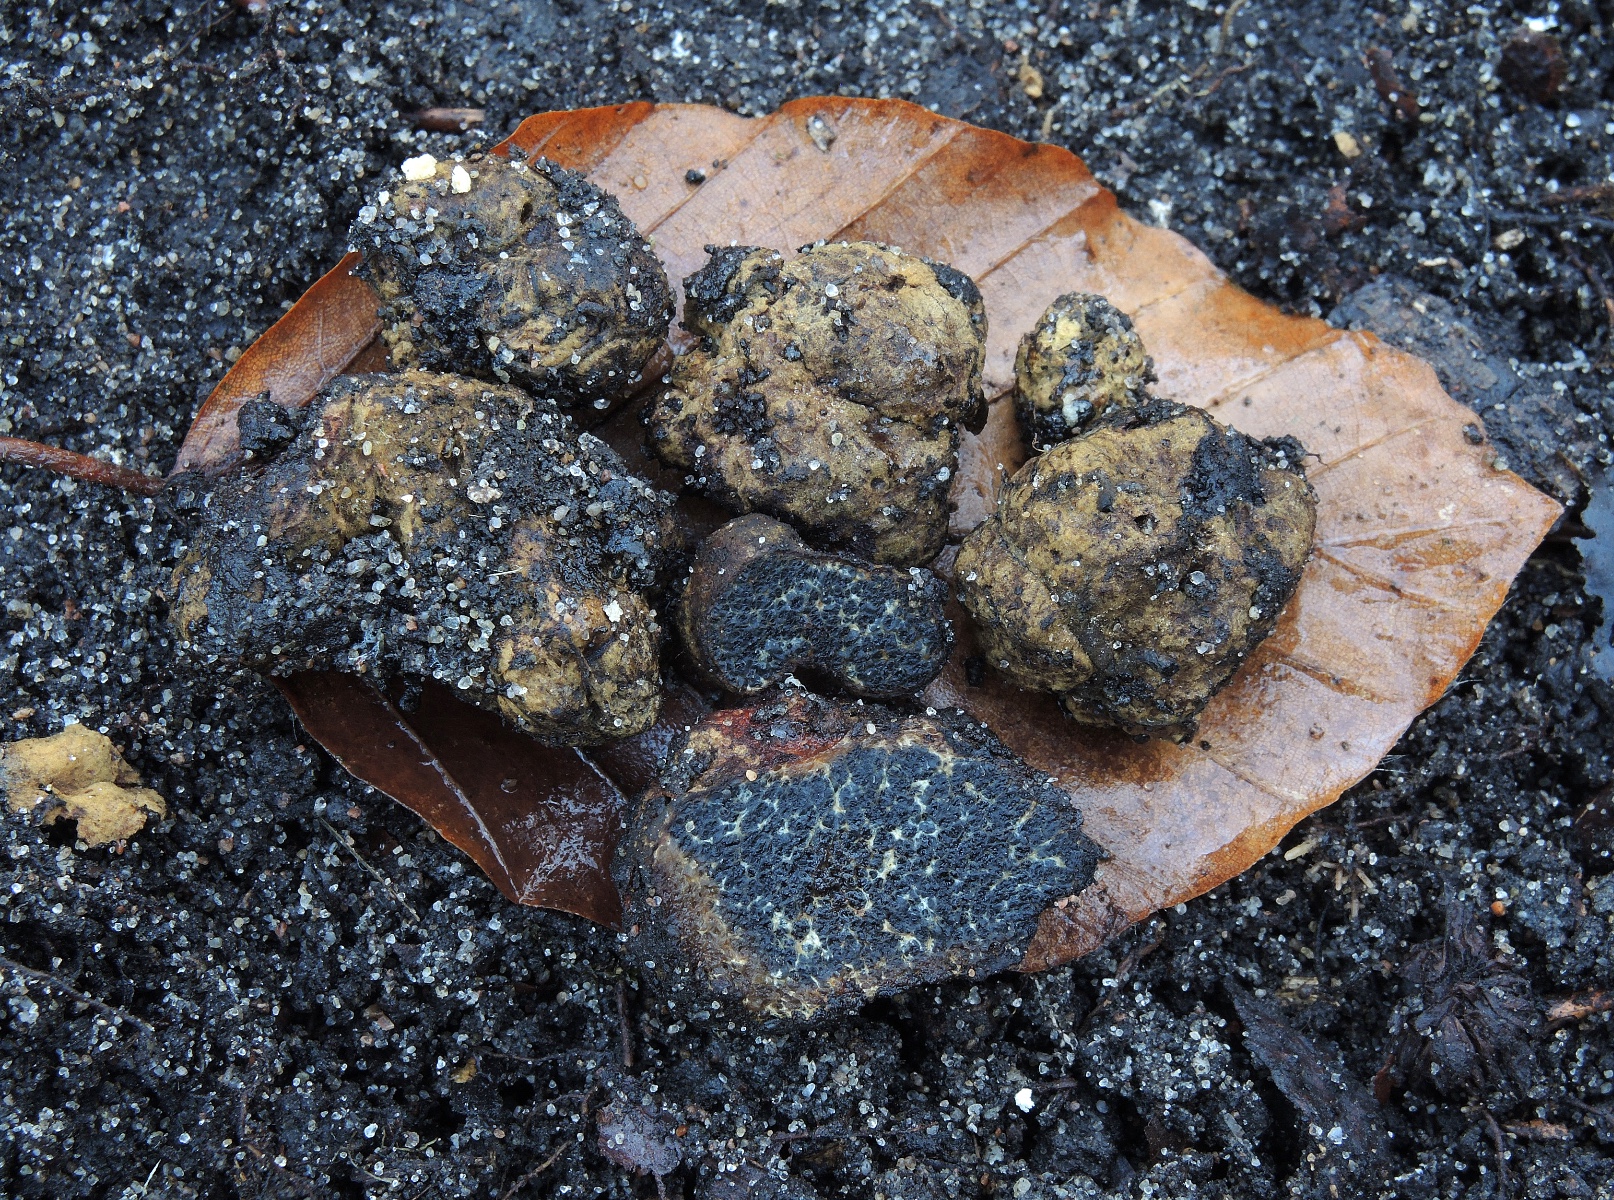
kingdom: Fungi
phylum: Basidiomycota
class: Agaricomycetes
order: Boletales
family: Paxillaceae
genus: Melanogaster
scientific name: Melanogaster broomeanus
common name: broget slimtrøffel
